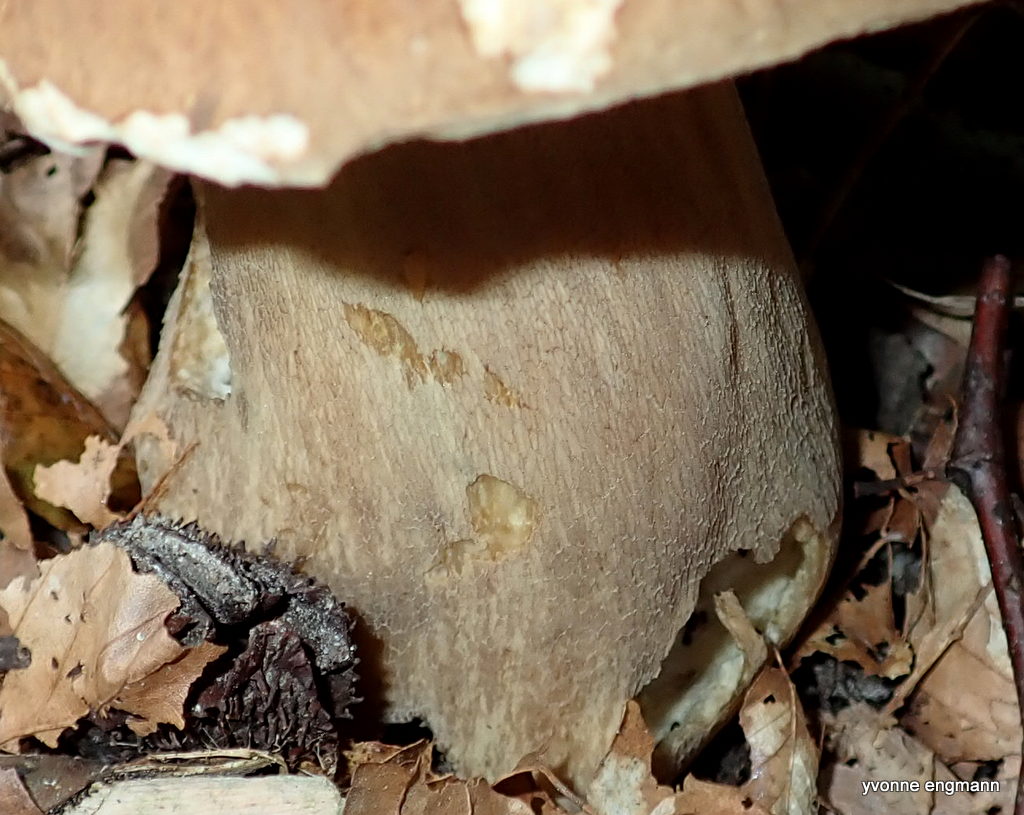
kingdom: Fungi
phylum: Basidiomycota
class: Agaricomycetes
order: Boletales
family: Boletaceae
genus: Boletus
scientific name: Boletus reticulatus
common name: sommer-rørhat
